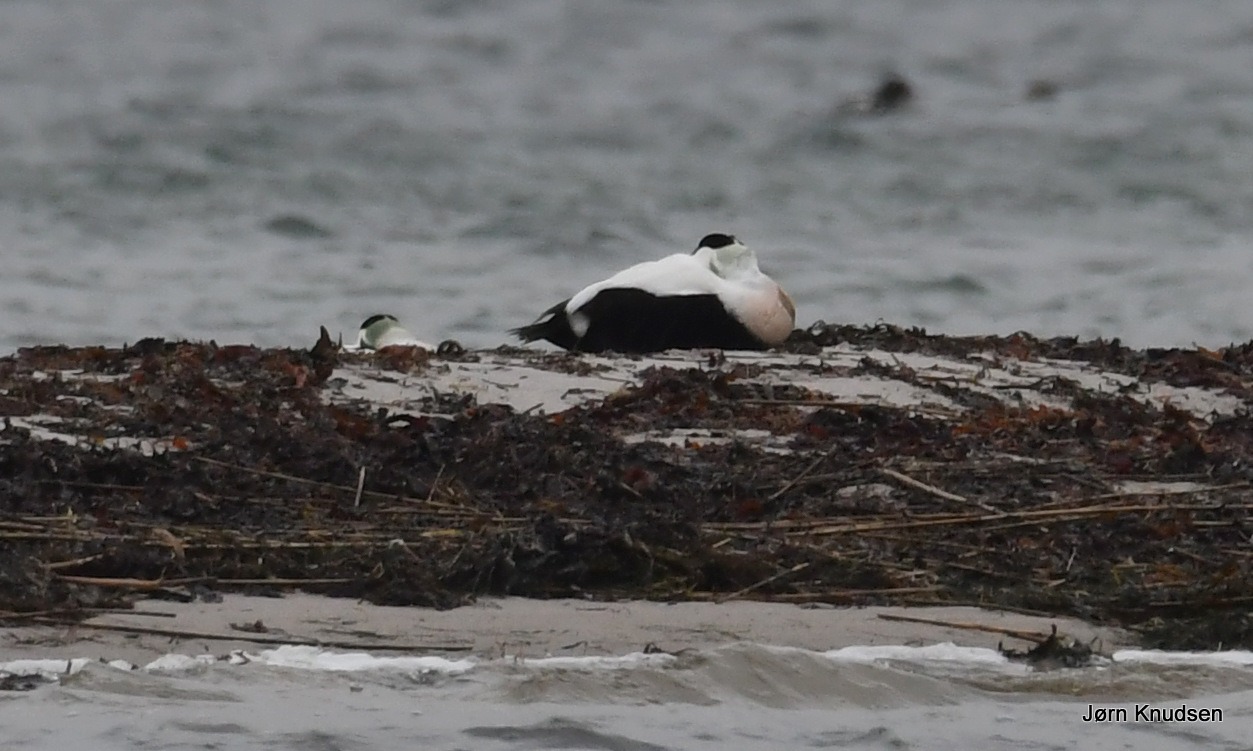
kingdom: Animalia
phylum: Chordata
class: Aves
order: Anseriformes
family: Anatidae
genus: Somateria
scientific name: Somateria mollissima
